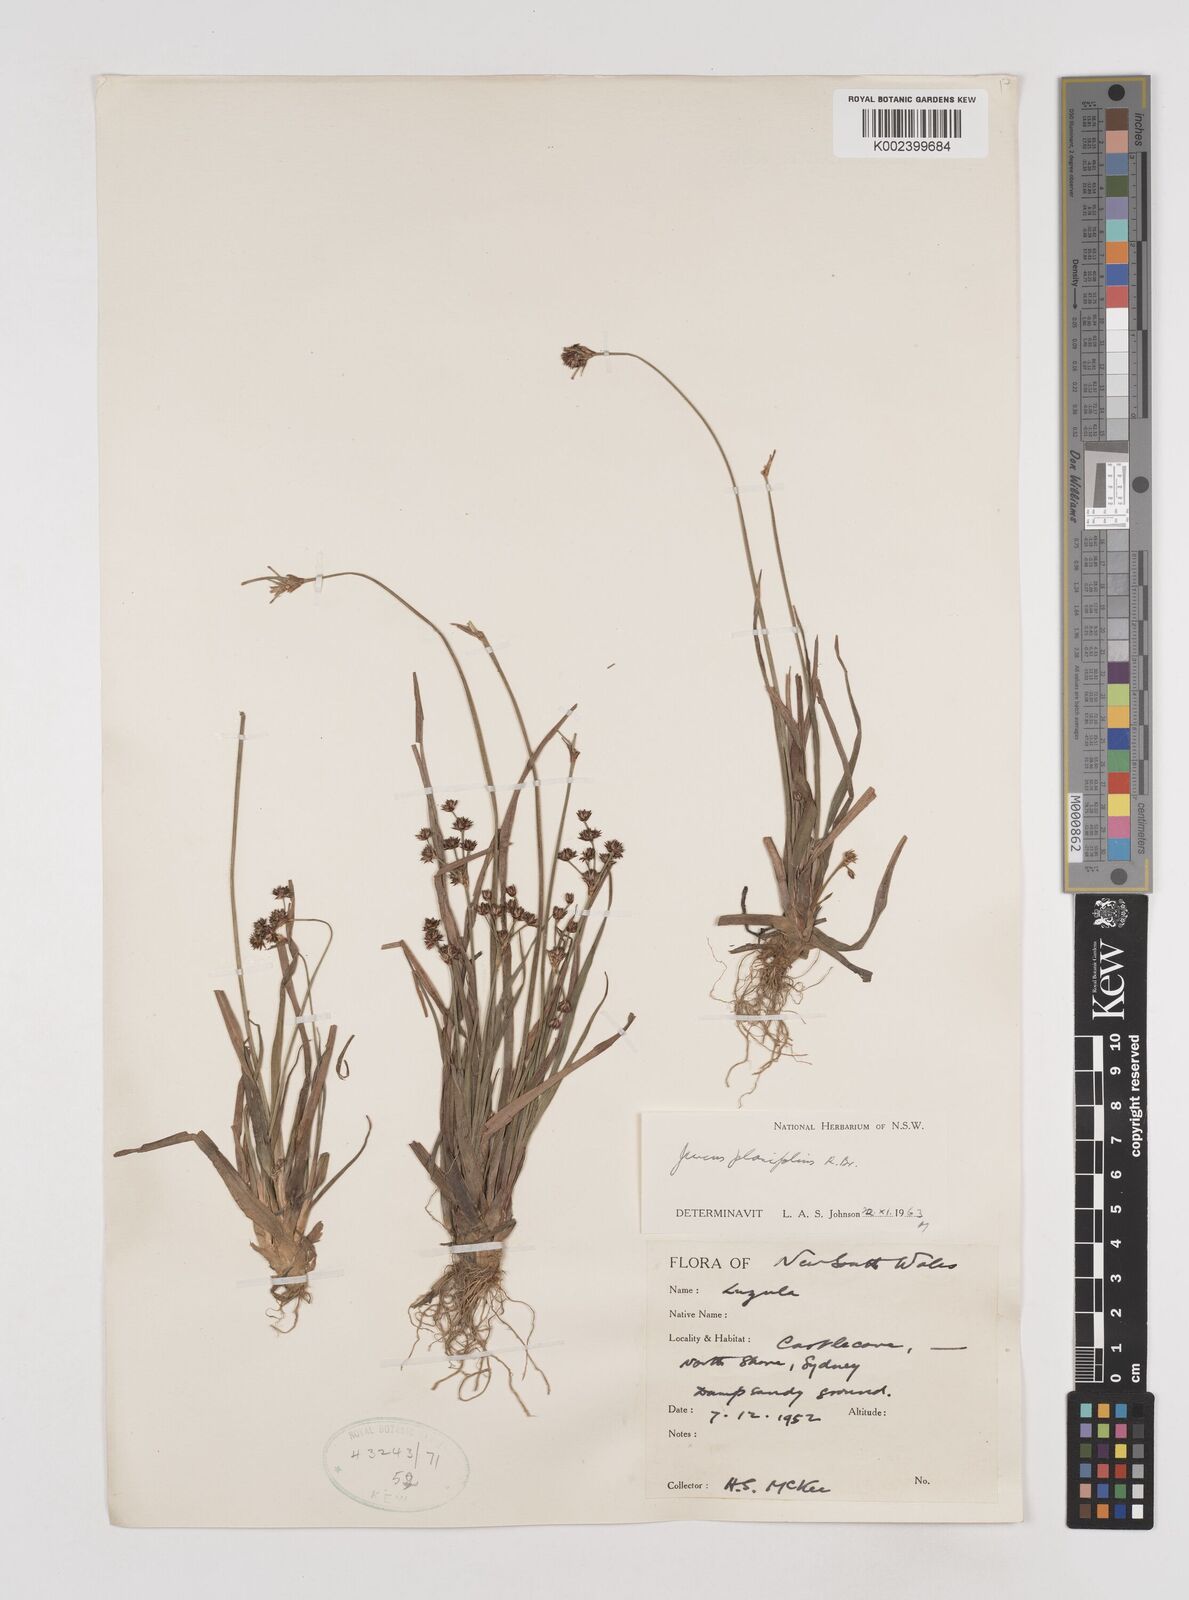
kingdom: Plantae
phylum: Tracheophyta
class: Liliopsida
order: Poales
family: Juncaceae
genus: Juncus
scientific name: Juncus planifolius
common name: Broadleaf rush
